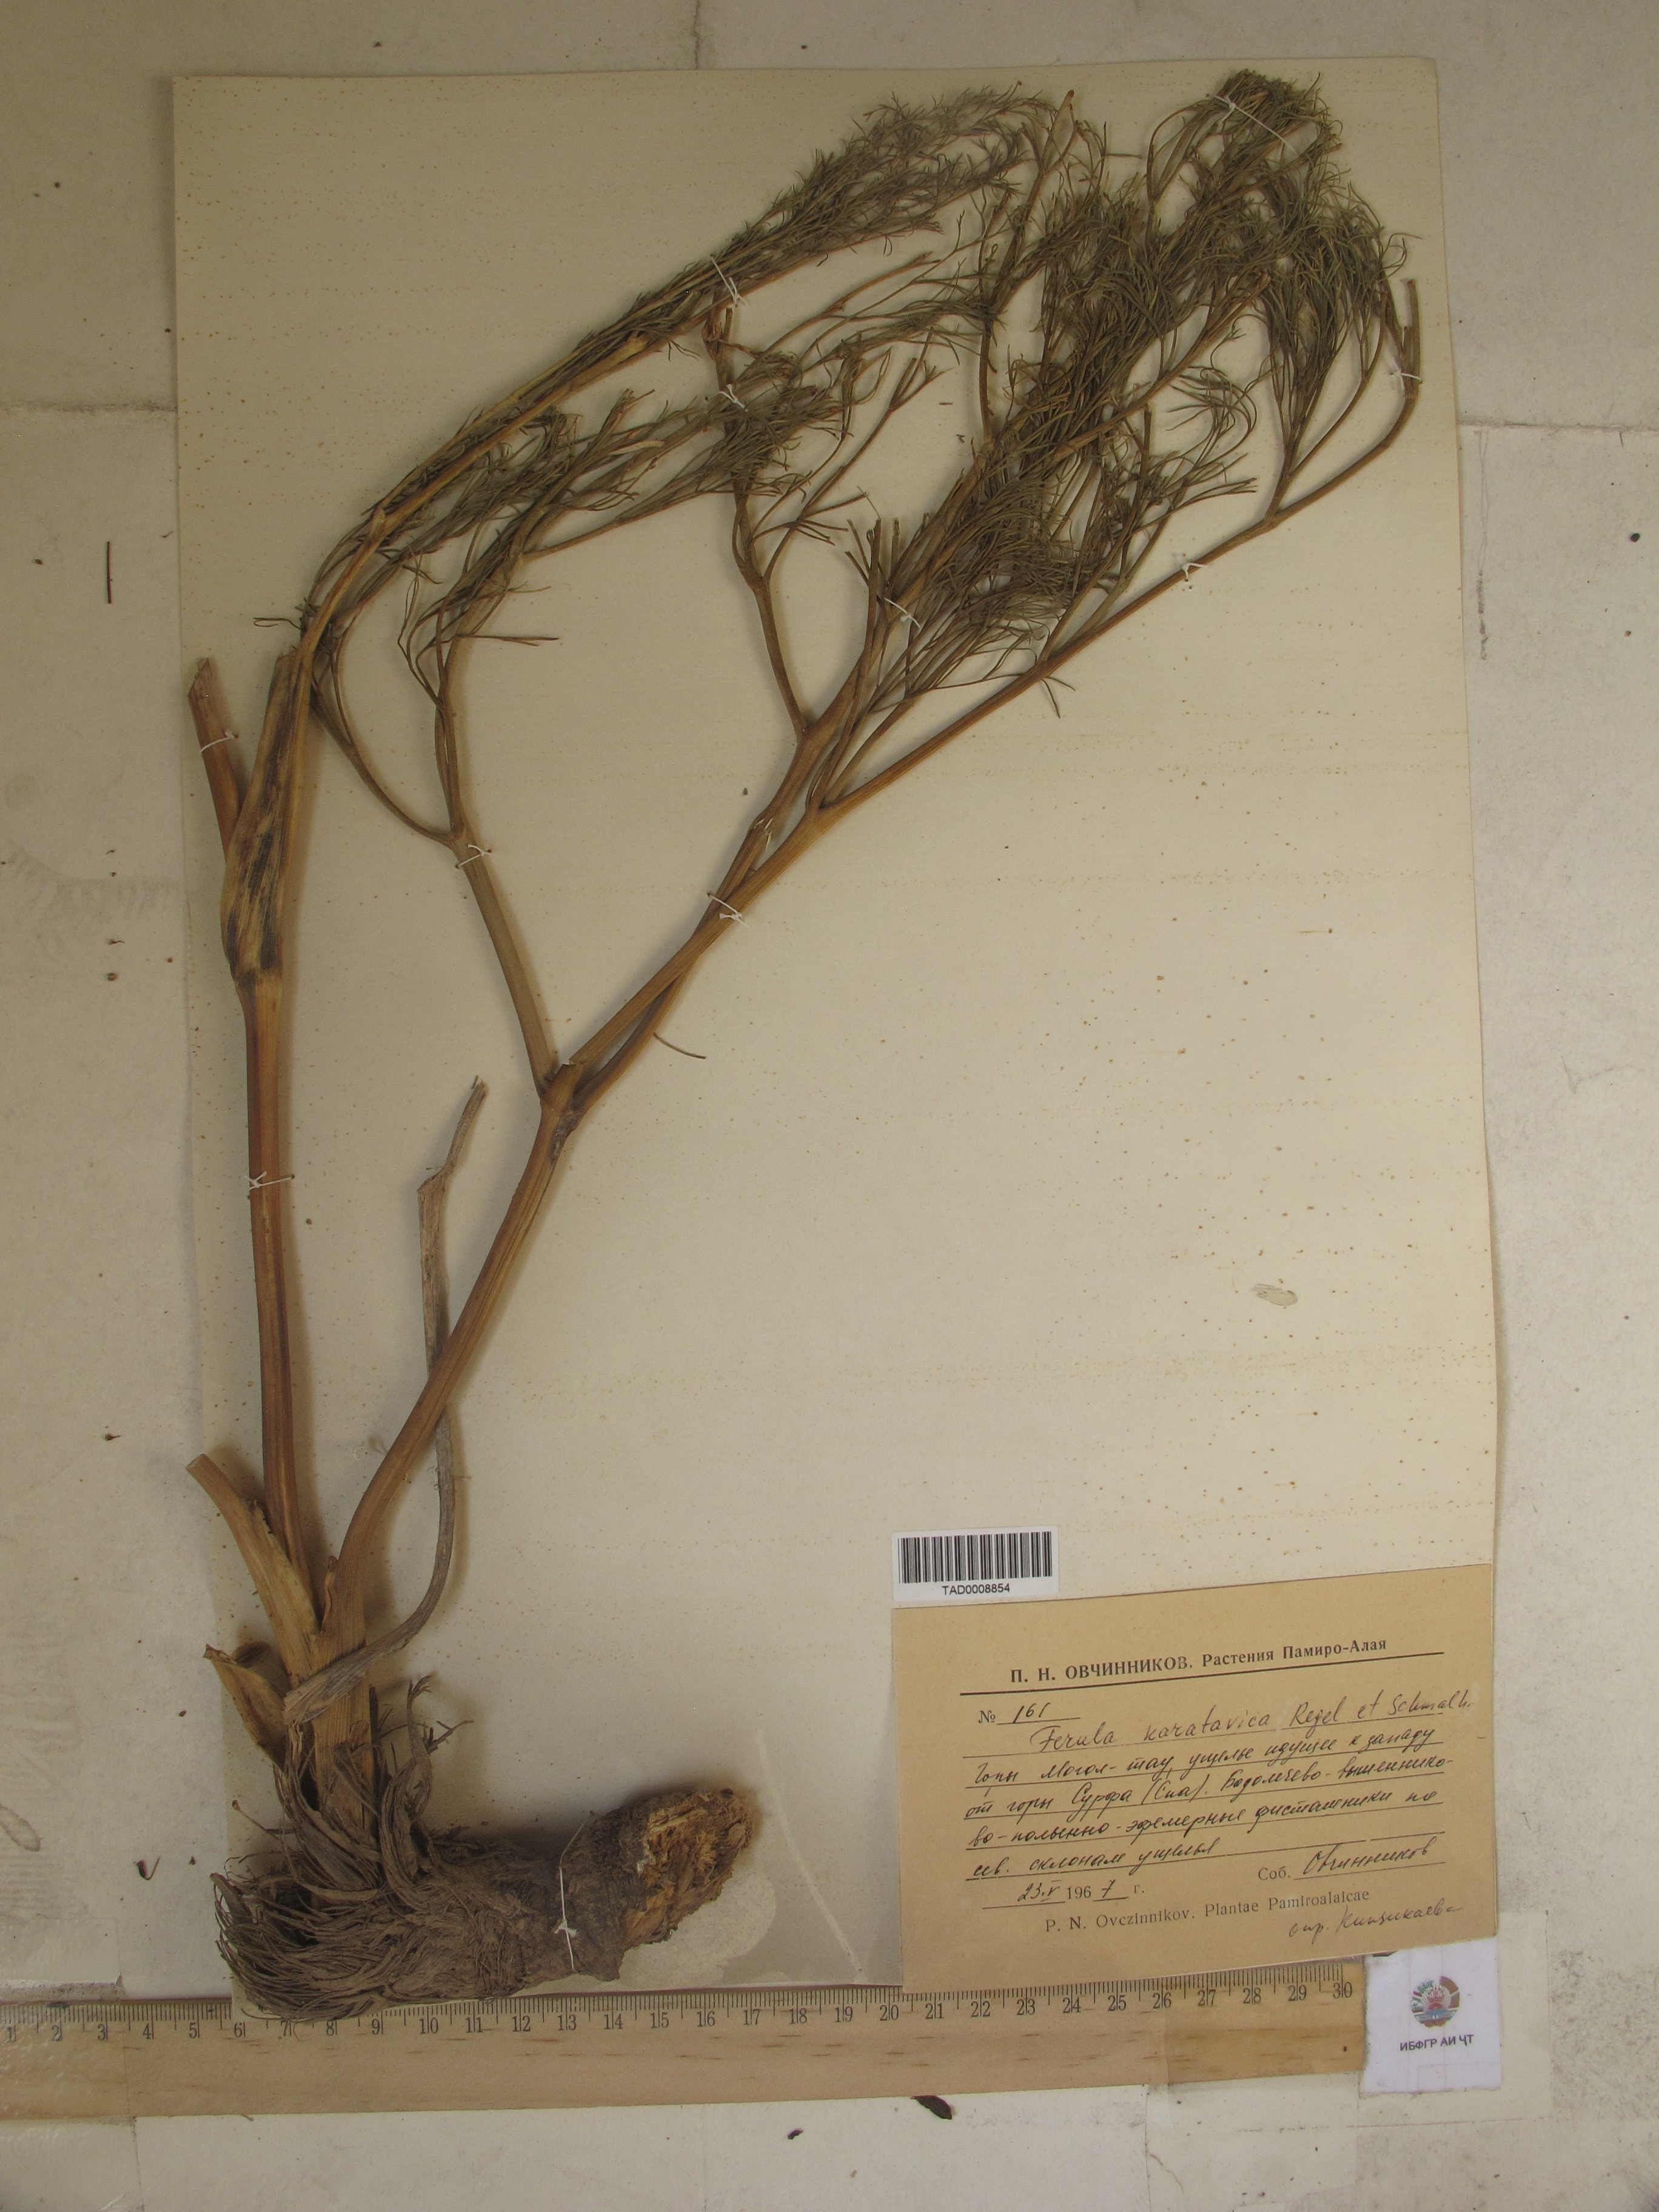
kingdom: Plantae
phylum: Tracheophyta
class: Magnoliopsida
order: Apiales
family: Apiaceae
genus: Ferula
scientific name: Ferula karatavica
